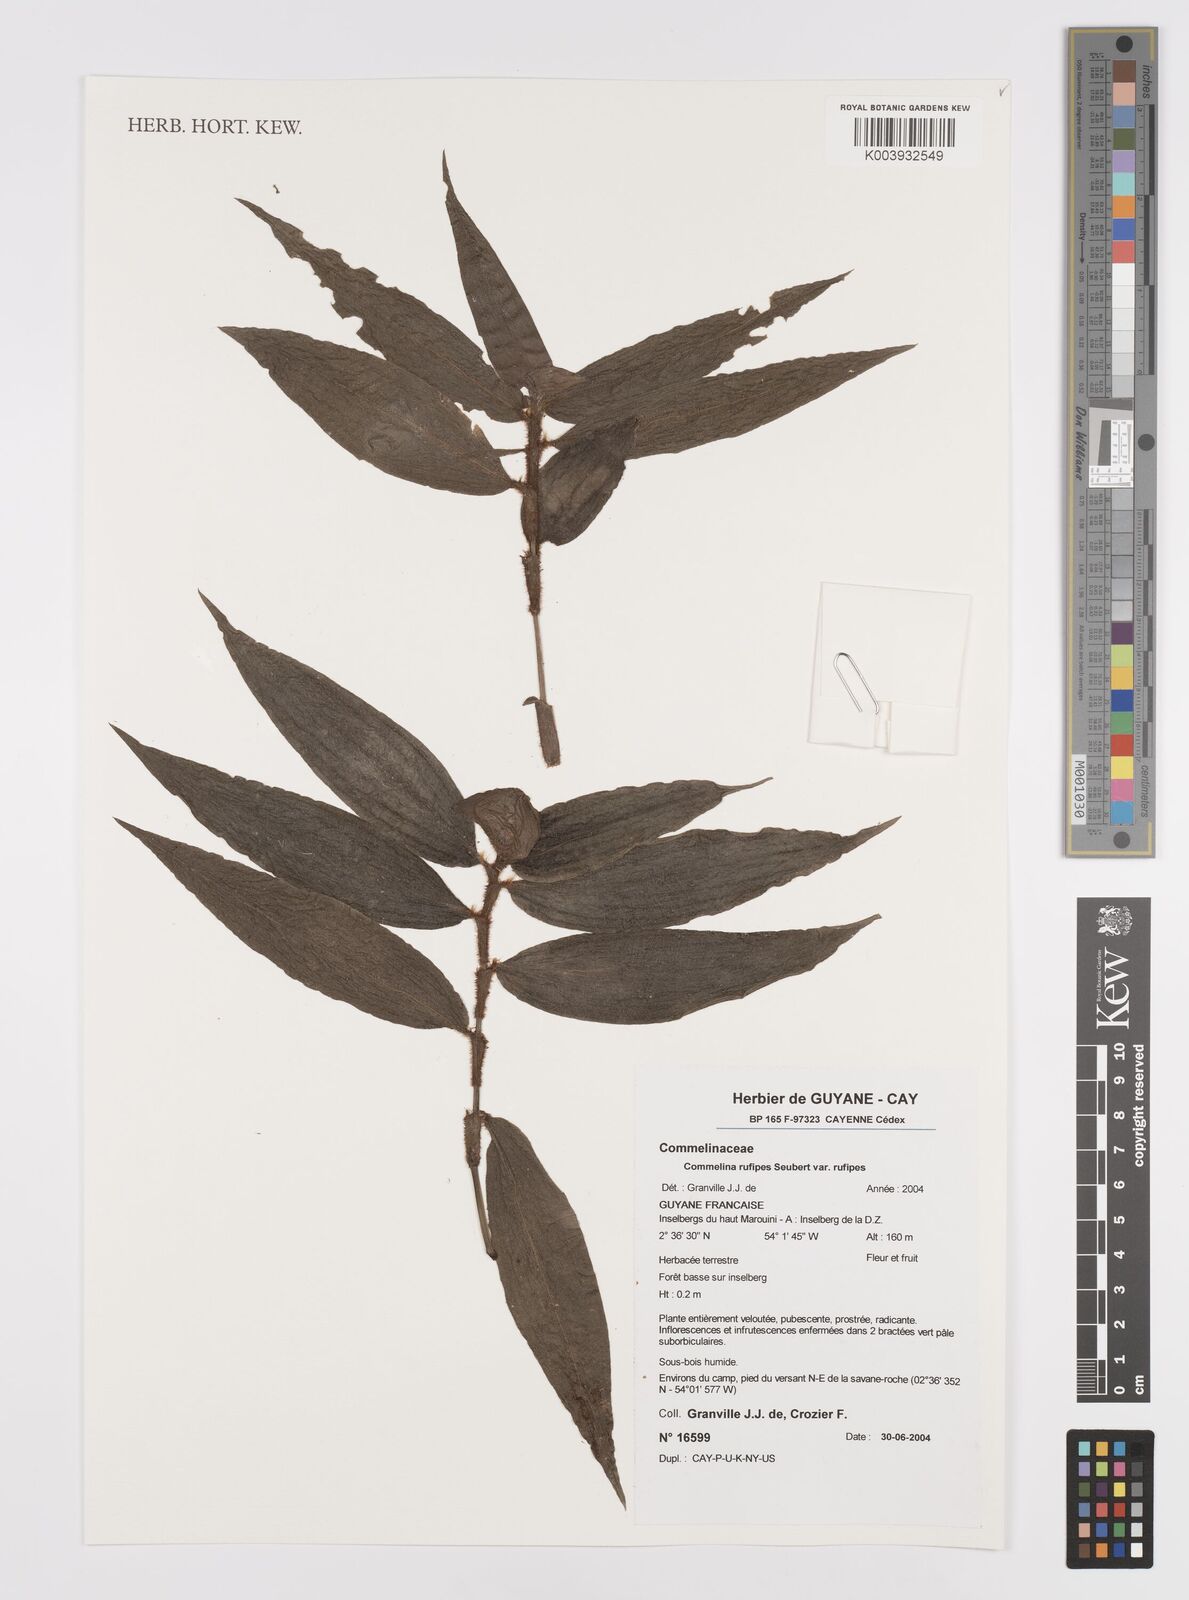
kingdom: Plantae
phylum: Tracheophyta
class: Liliopsida
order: Commelinales
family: Commelinaceae
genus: Commelina
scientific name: Commelina rufipes
